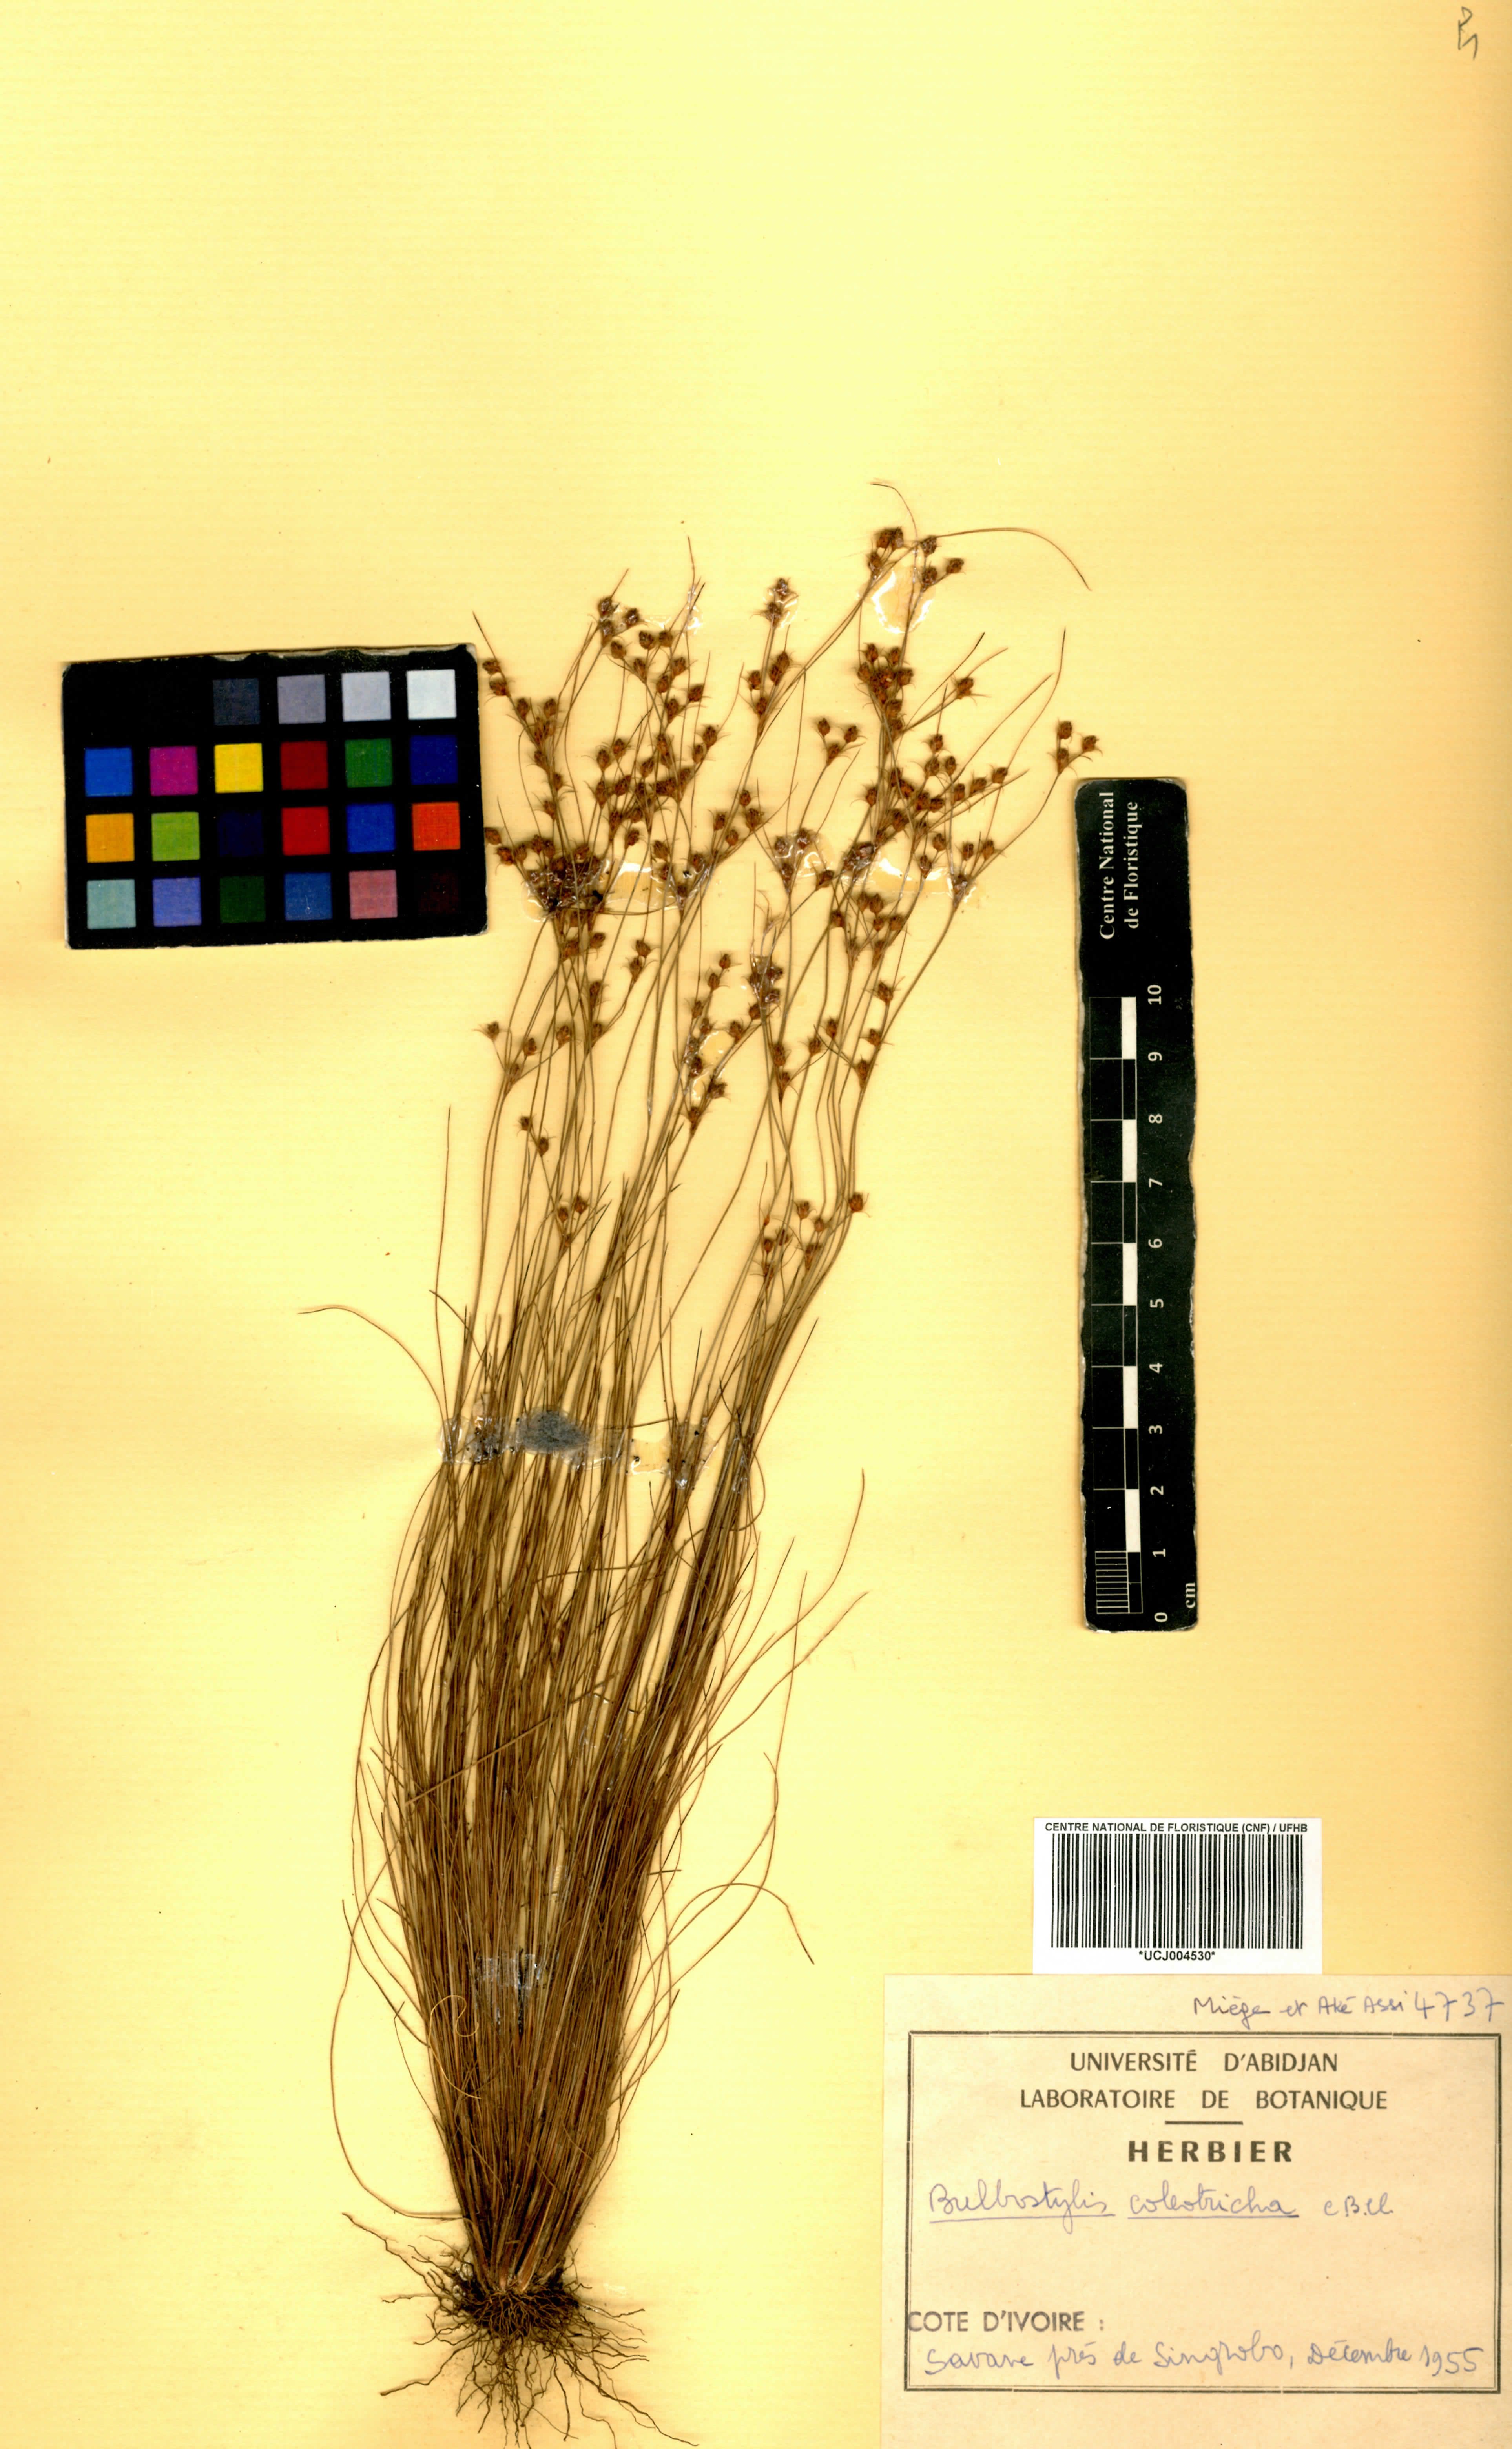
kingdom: Plantae
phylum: Tracheophyta
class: Liliopsida
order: Poales
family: Cyperaceae
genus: Bulbostylis
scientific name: Bulbostylis coleotricha
